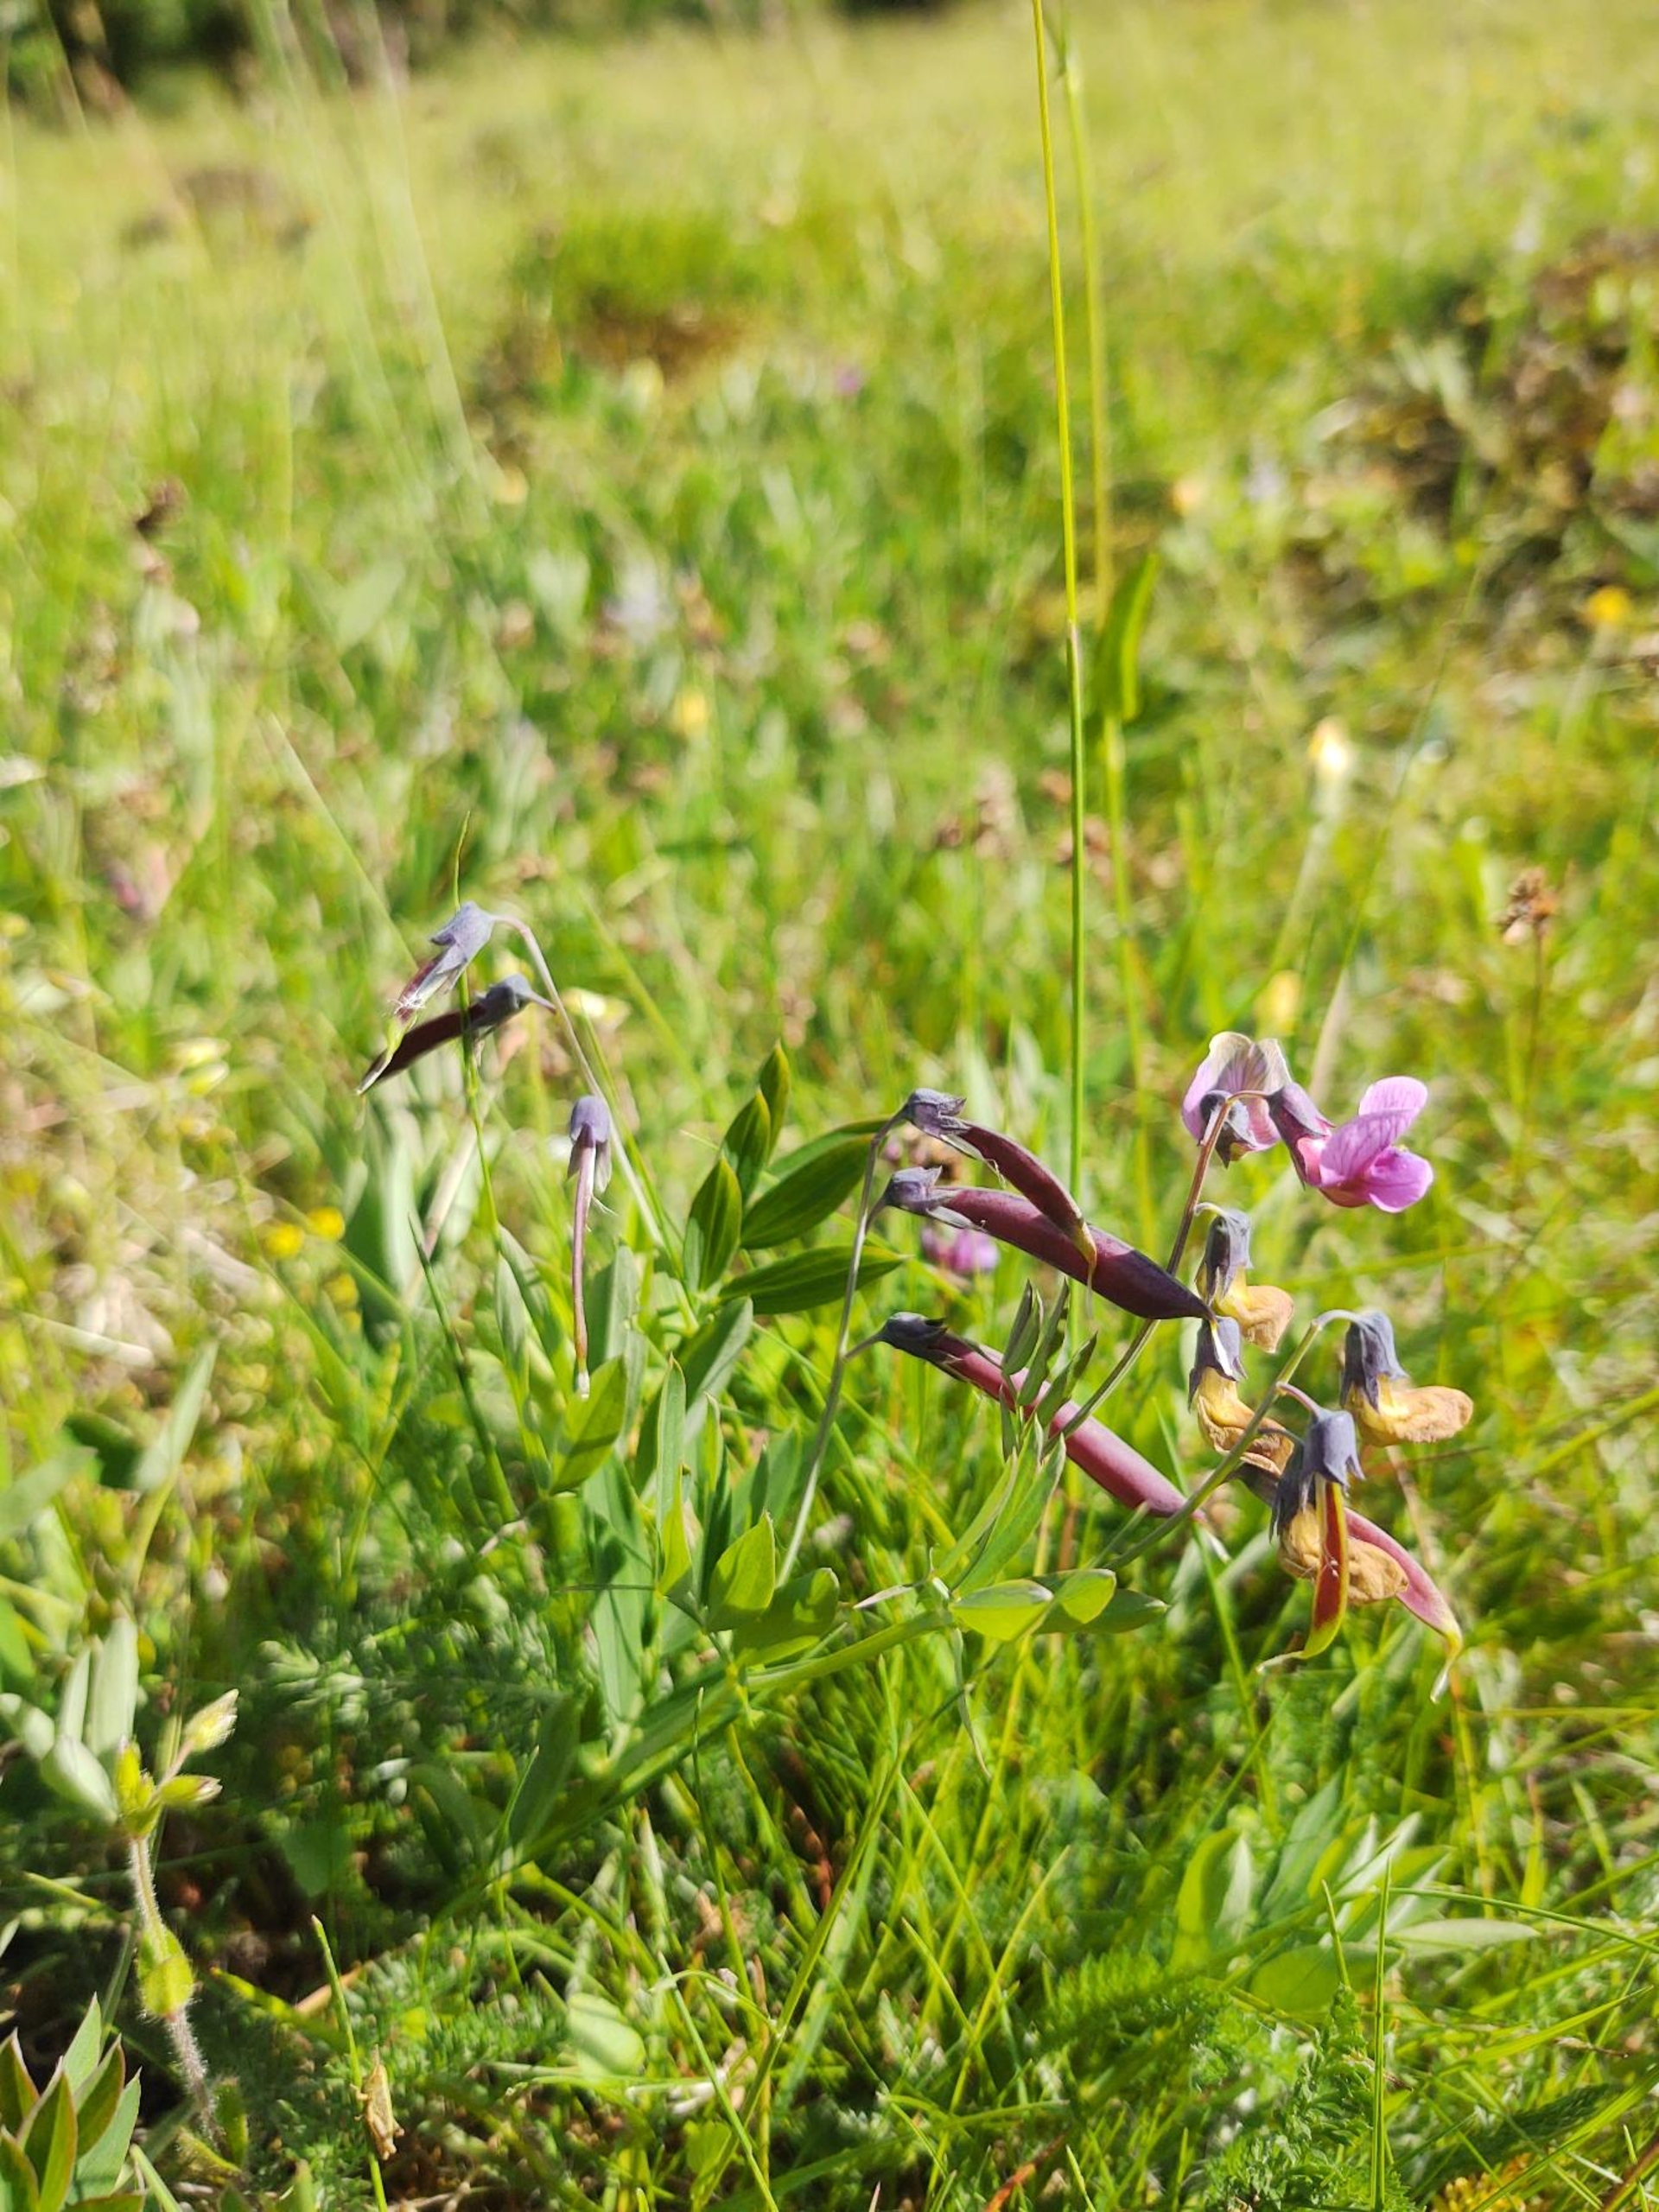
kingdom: Plantae
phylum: Tracheophyta
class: Magnoliopsida
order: Fabales
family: Fabaceae
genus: Lathyrus
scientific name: Lathyrus linifolius
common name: Krat-fladbælg
